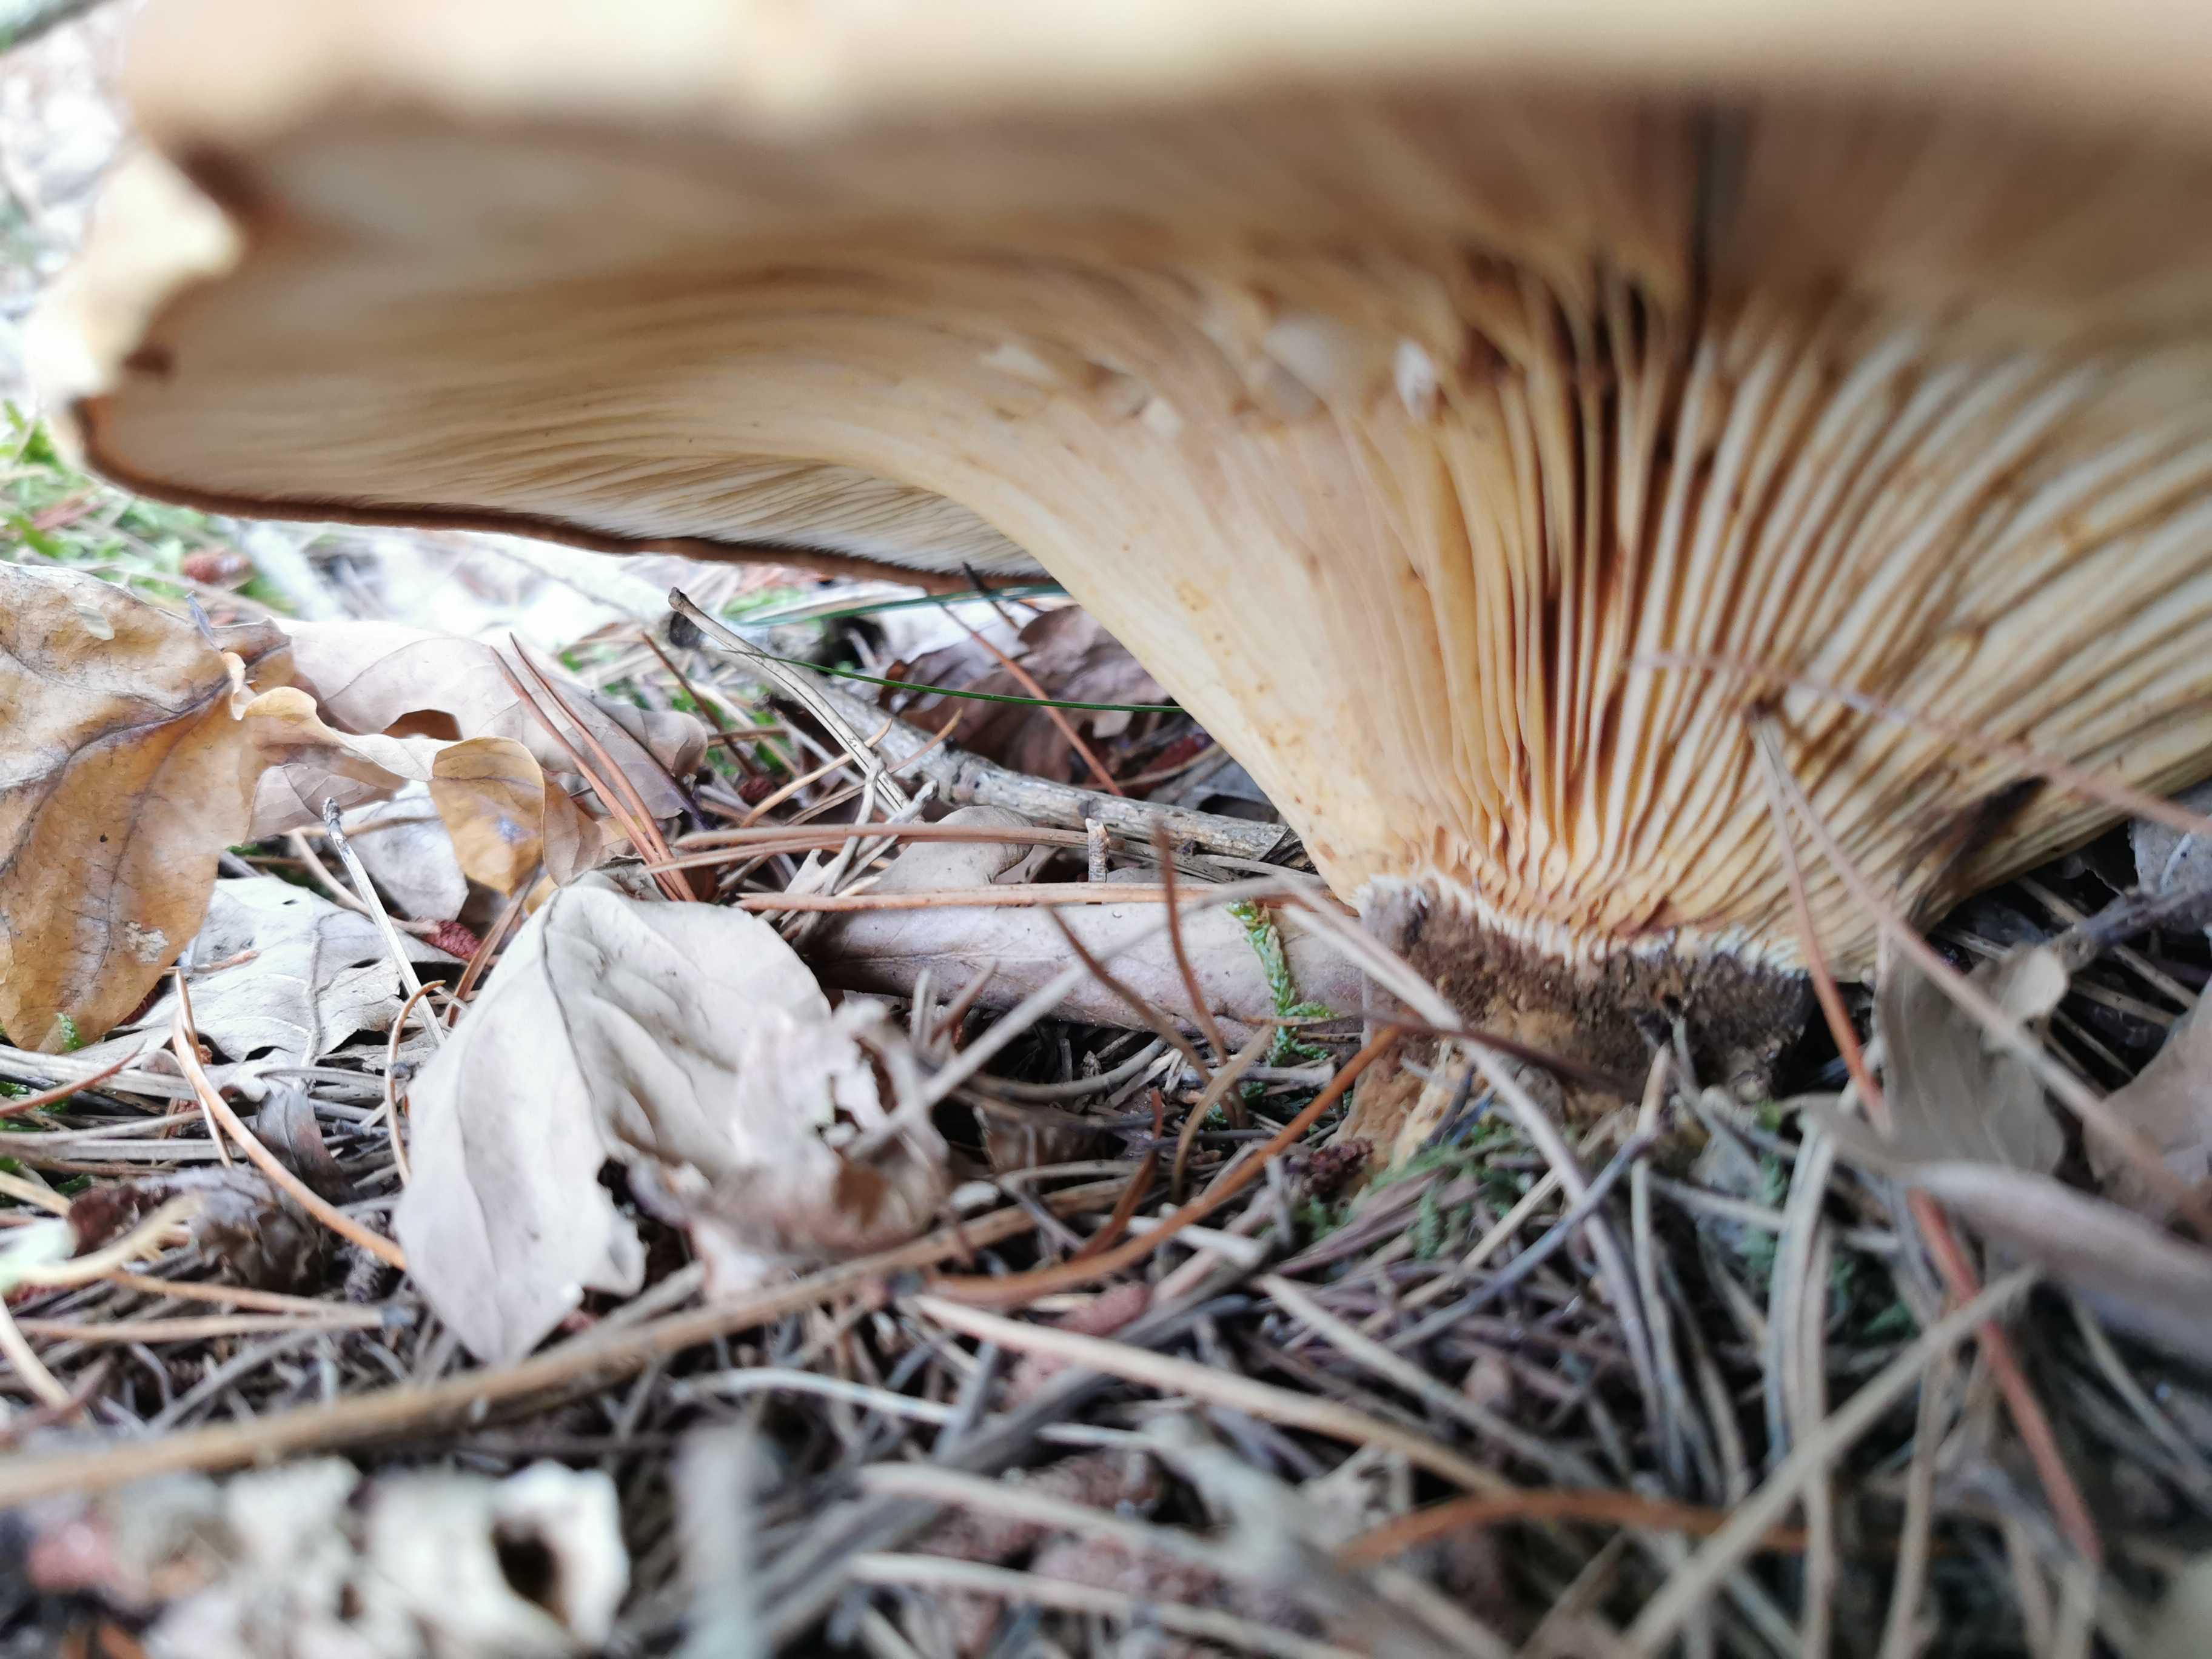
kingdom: Fungi
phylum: Basidiomycota
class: Agaricomycetes
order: Boletales
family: Tapinellaceae
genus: Tapinella
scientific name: Tapinella atrotomentosa
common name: sortfiltet viftesvamp
